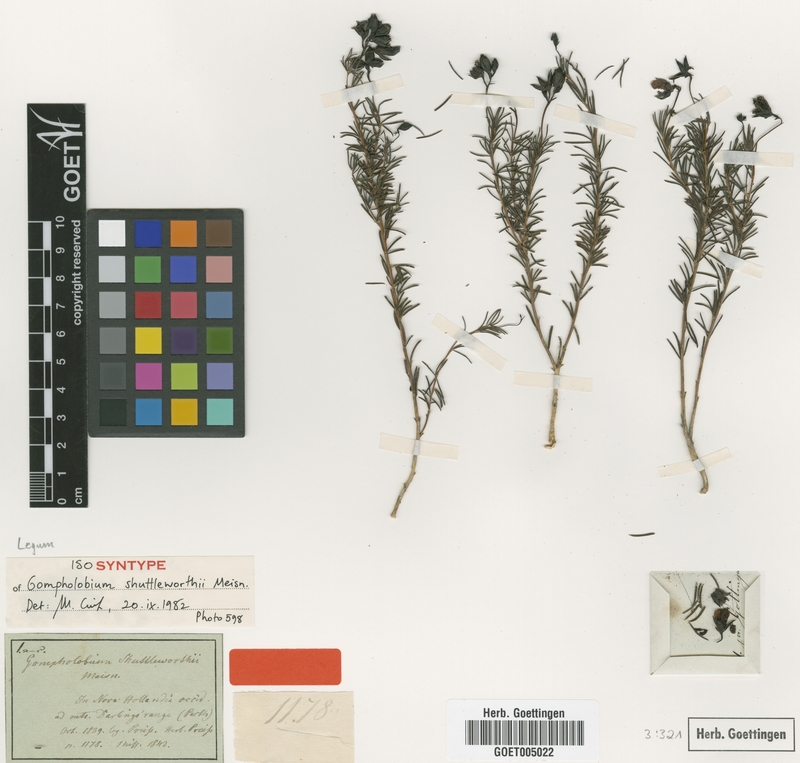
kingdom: Plantae
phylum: Tracheophyta
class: Magnoliopsida
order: Fabales
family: Fabaceae
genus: Gompholobium
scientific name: Gompholobium shuttleworthii
